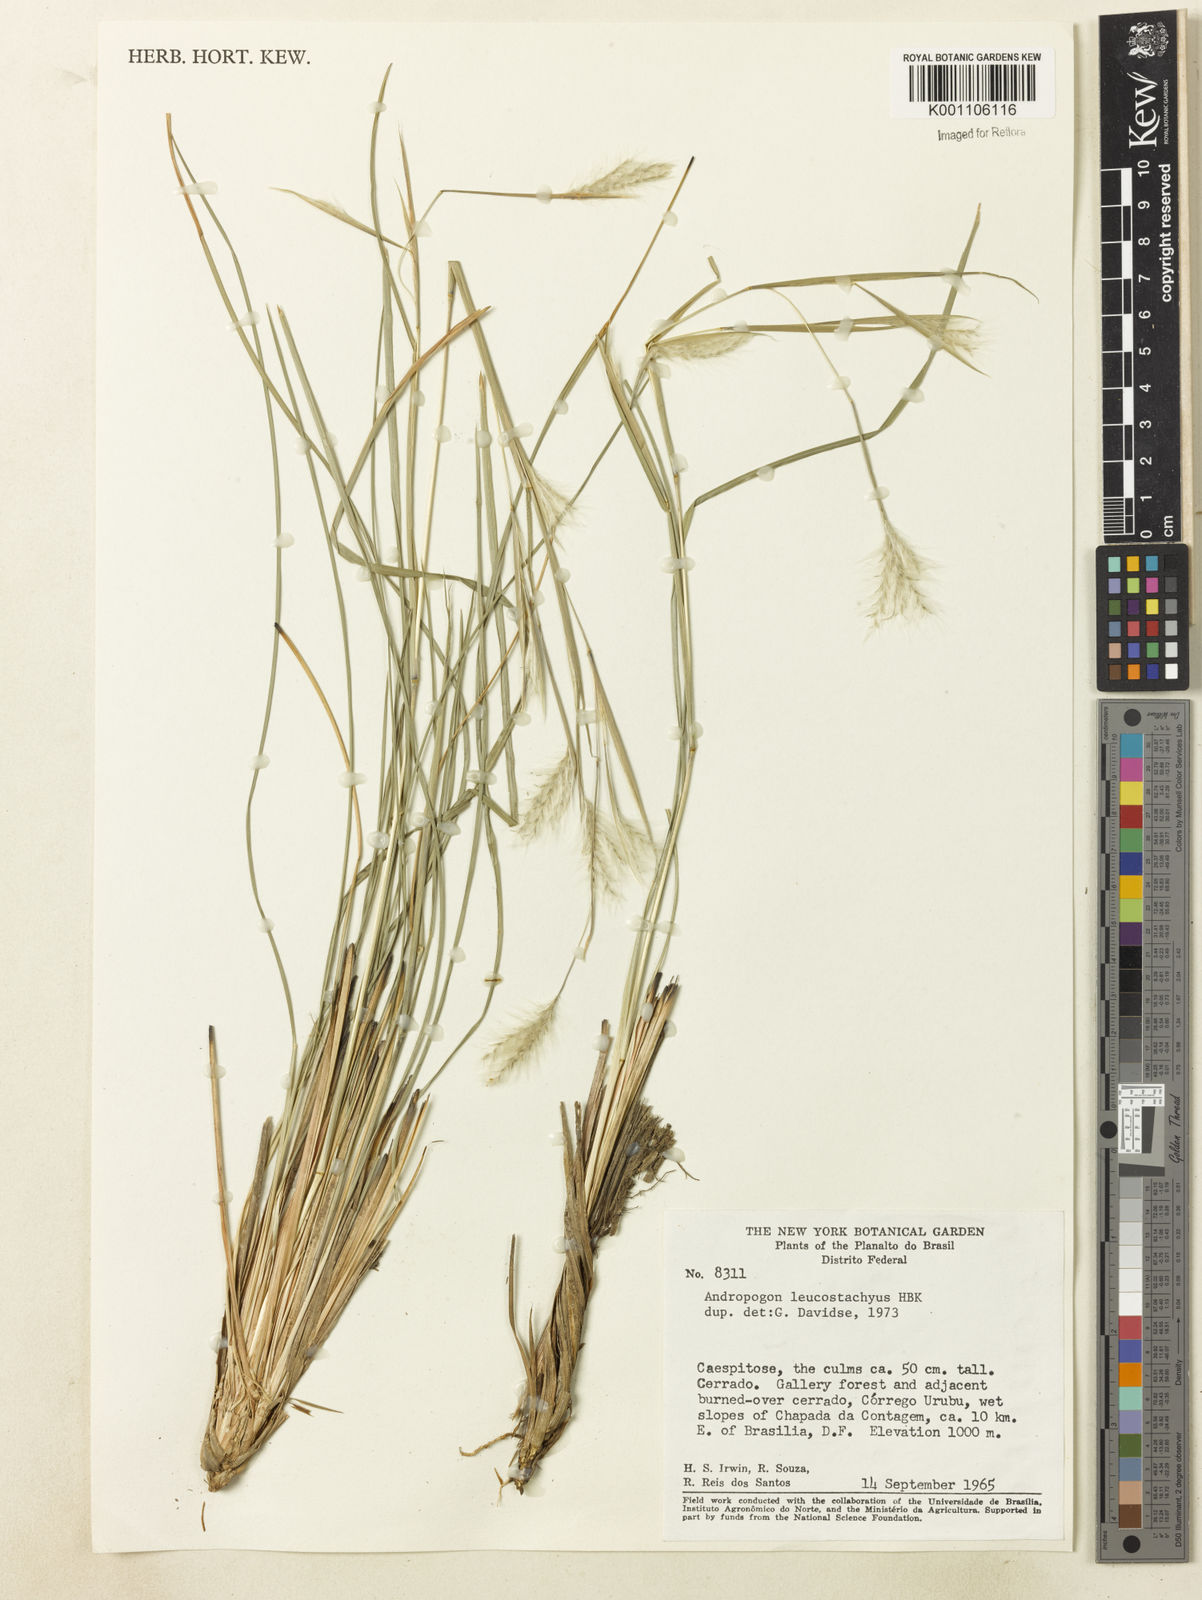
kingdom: Plantae
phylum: Tracheophyta
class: Liliopsida
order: Poales
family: Poaceae
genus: Andropogon
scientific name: Andropogon leucostachyus
